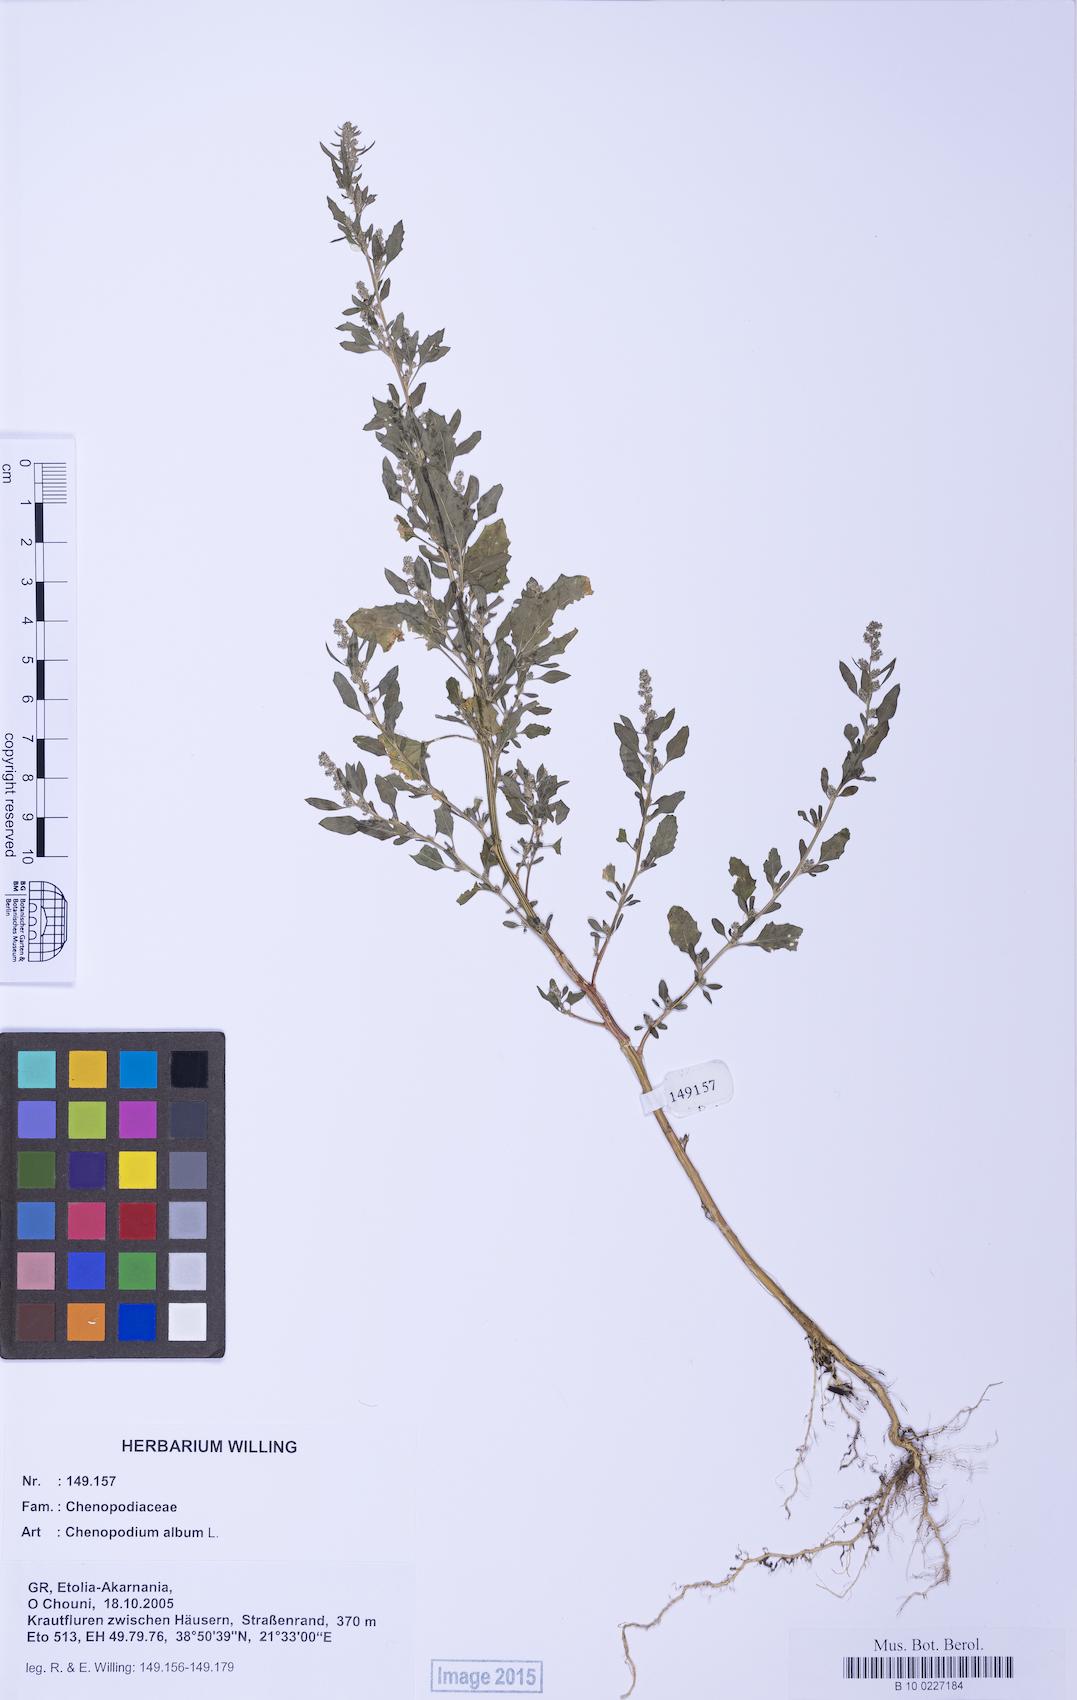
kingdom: Plantae
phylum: Tracheophyta
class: Magnoliopsida
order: Caryophyllales
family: Amaranthaceae
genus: Chenopodium
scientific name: Chenopodium album
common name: Fat-hen
